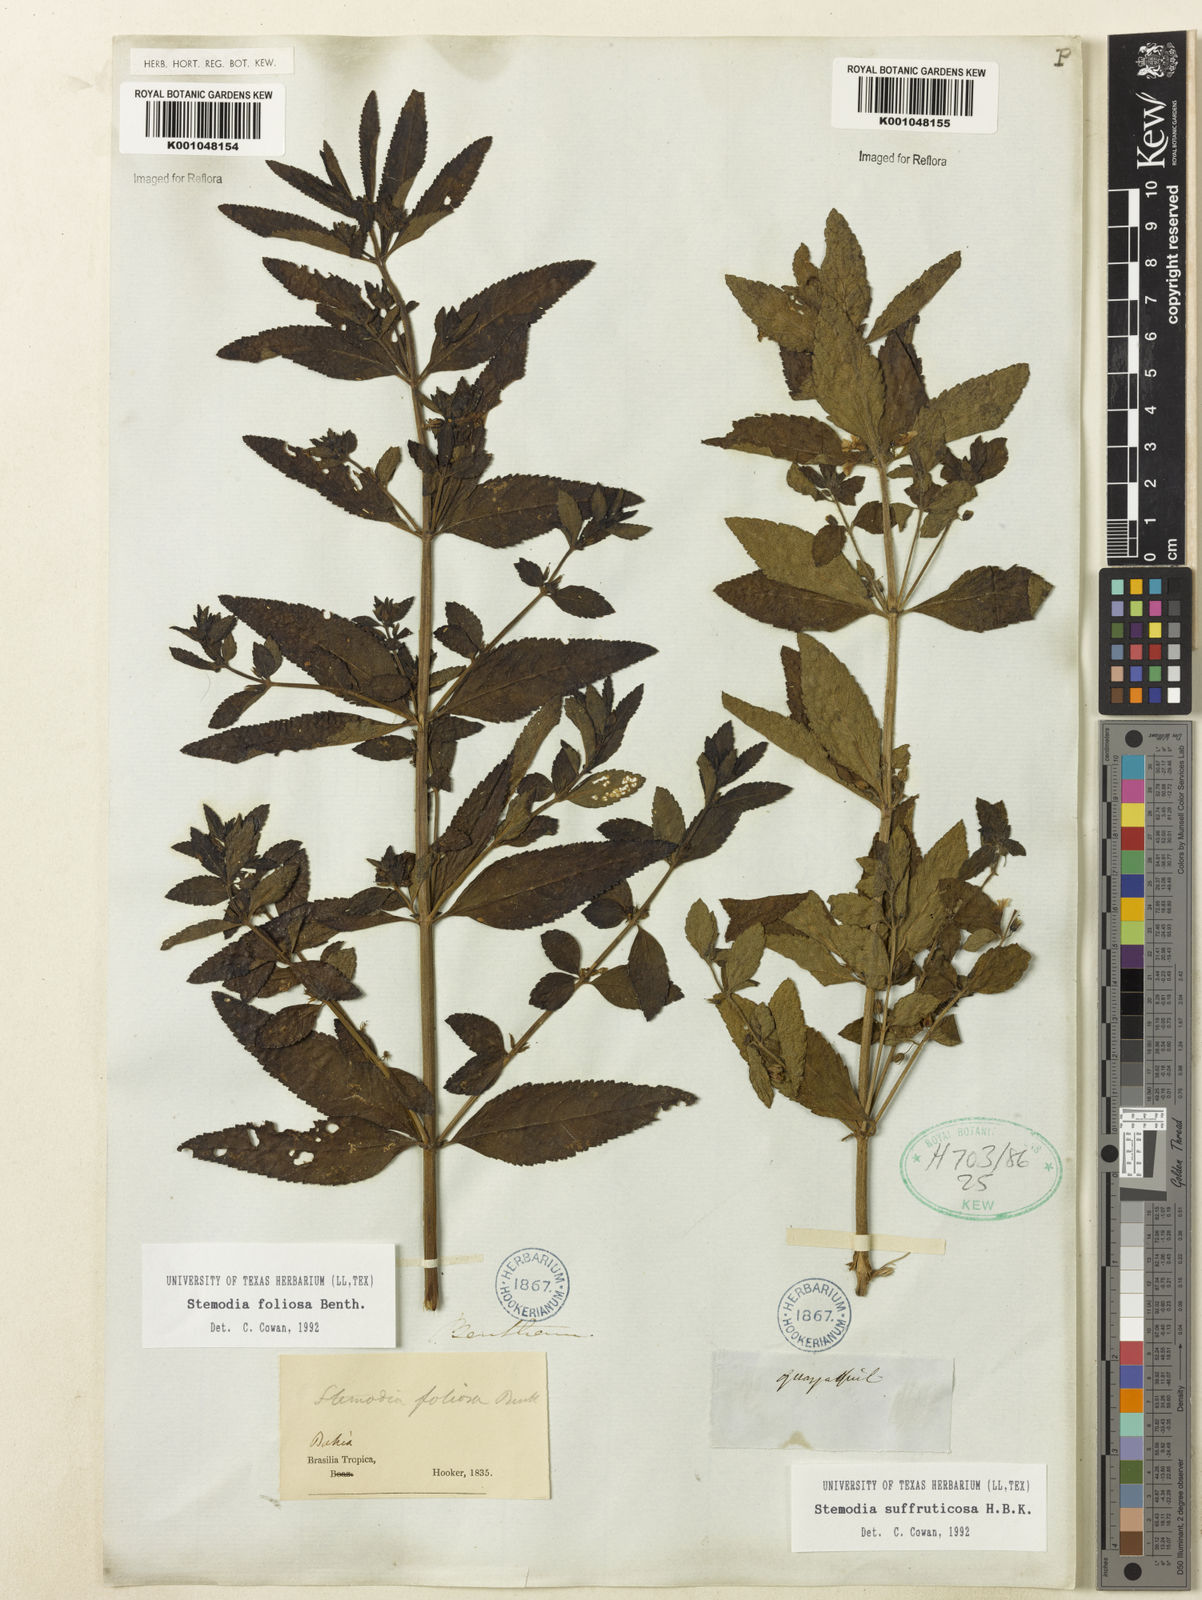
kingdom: Plantae
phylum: Tracheophyta
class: Magnoliopsida
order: Lamiales
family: Plantaginaceae
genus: Stemodia
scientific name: Stemodia foliosa
